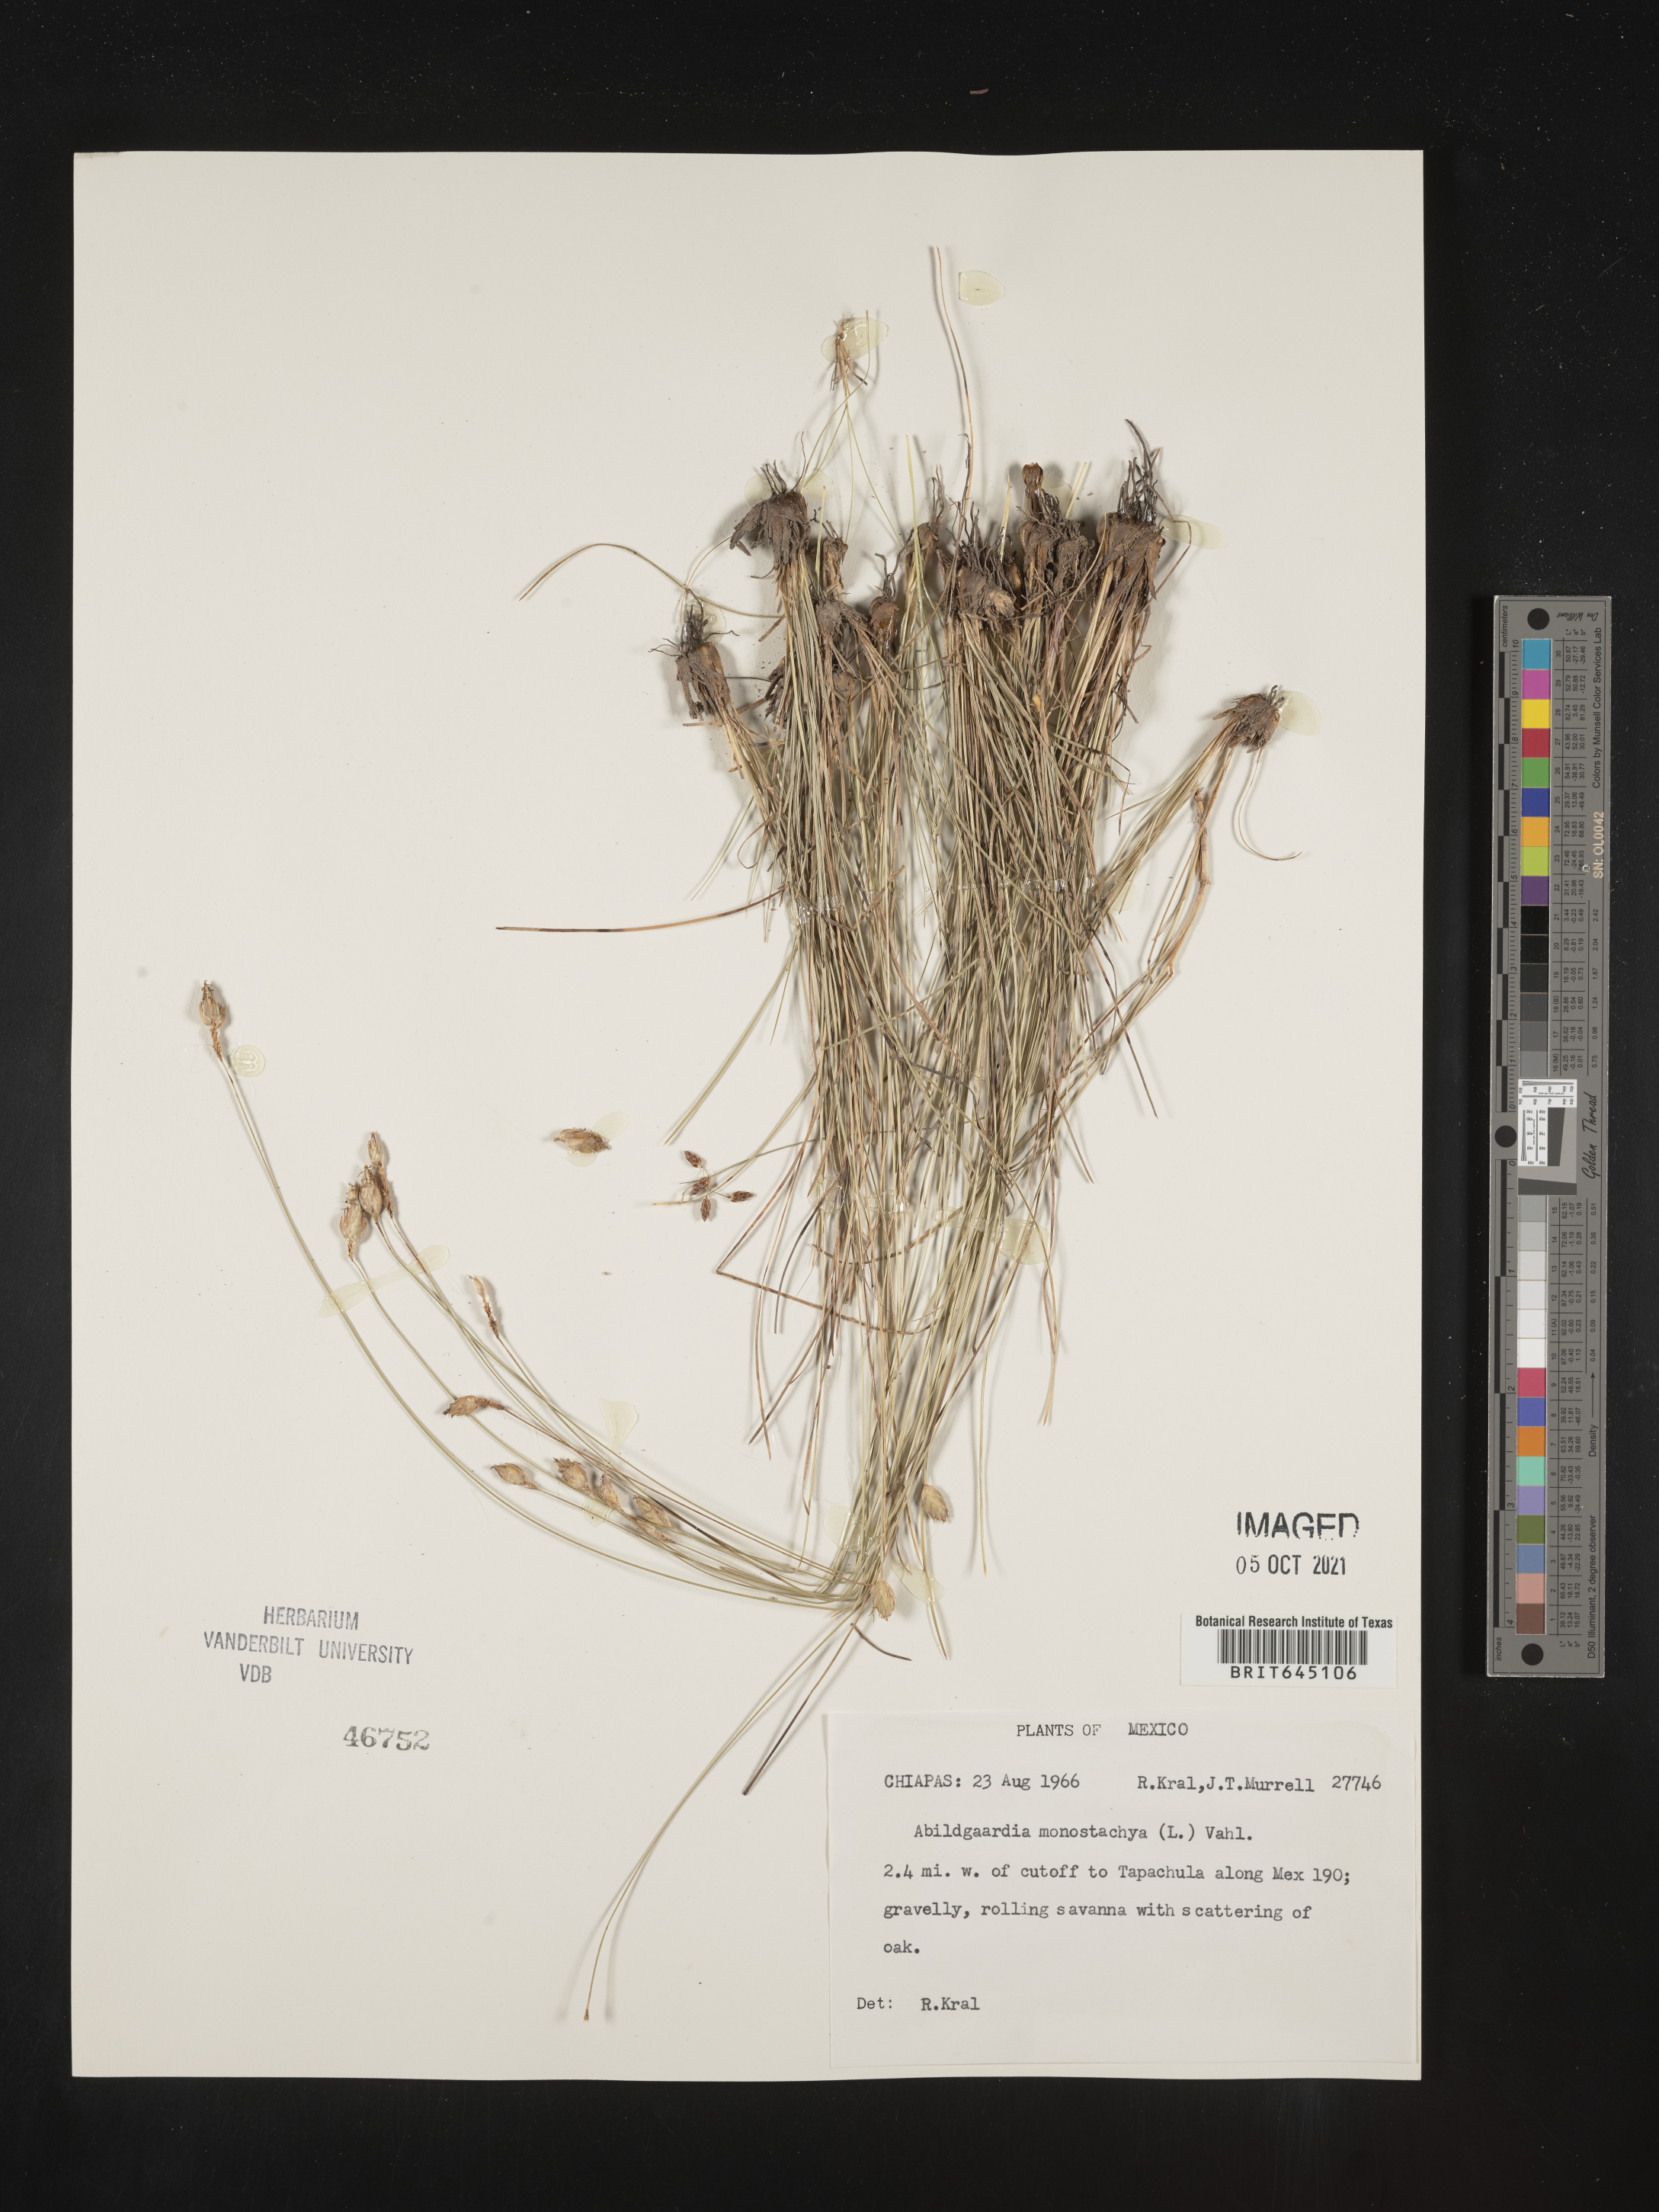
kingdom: Plantae
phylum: Tracheophyta
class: Liliopsida
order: Poales
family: Cyperaceae
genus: Abildgaardia
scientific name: Abildgaardia
